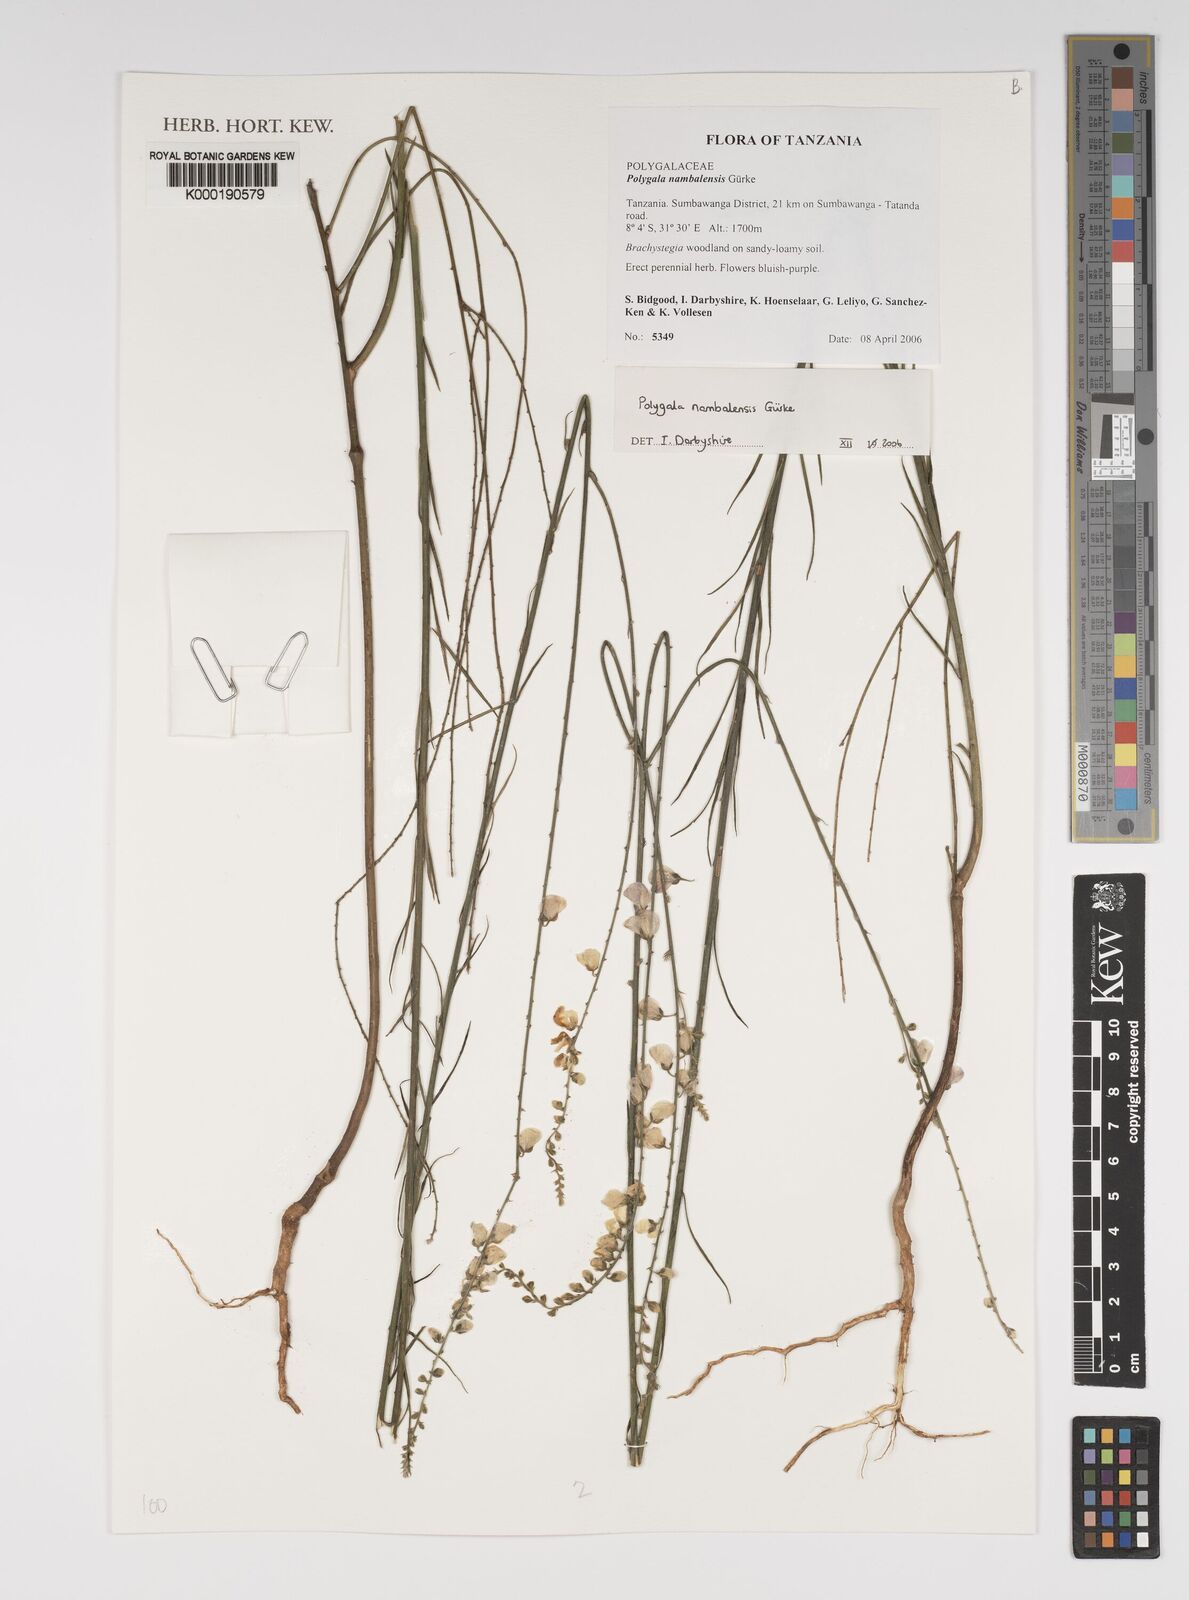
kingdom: Plantae
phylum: Tracheophyta
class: Magnoliopsida
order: Fabales
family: Polygalaceae
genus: Polygala
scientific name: Polygala
